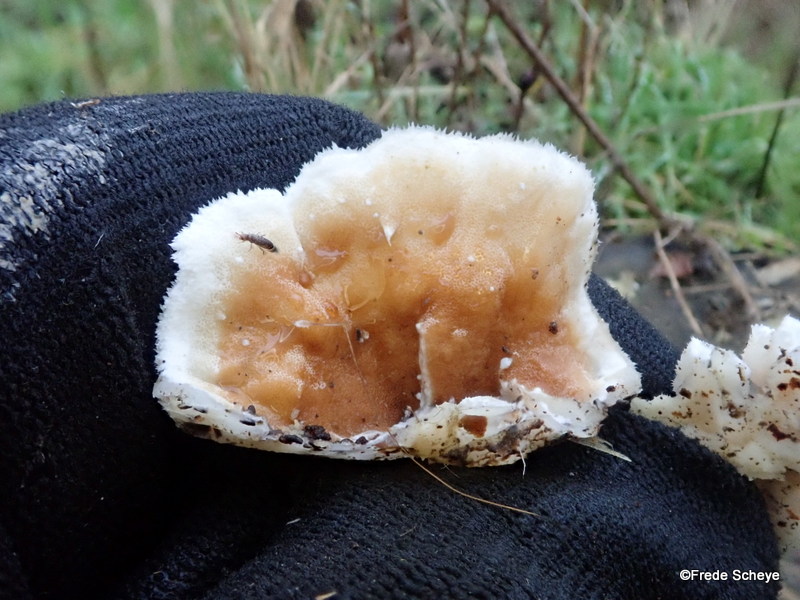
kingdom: Fungi
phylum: Basidiomycota
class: Agaricomycetes
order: Polyporales
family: Incrustoporiaceae
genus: Skeletocutis
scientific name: Skeletocutis amorpha
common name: orange krystalporesvamp
